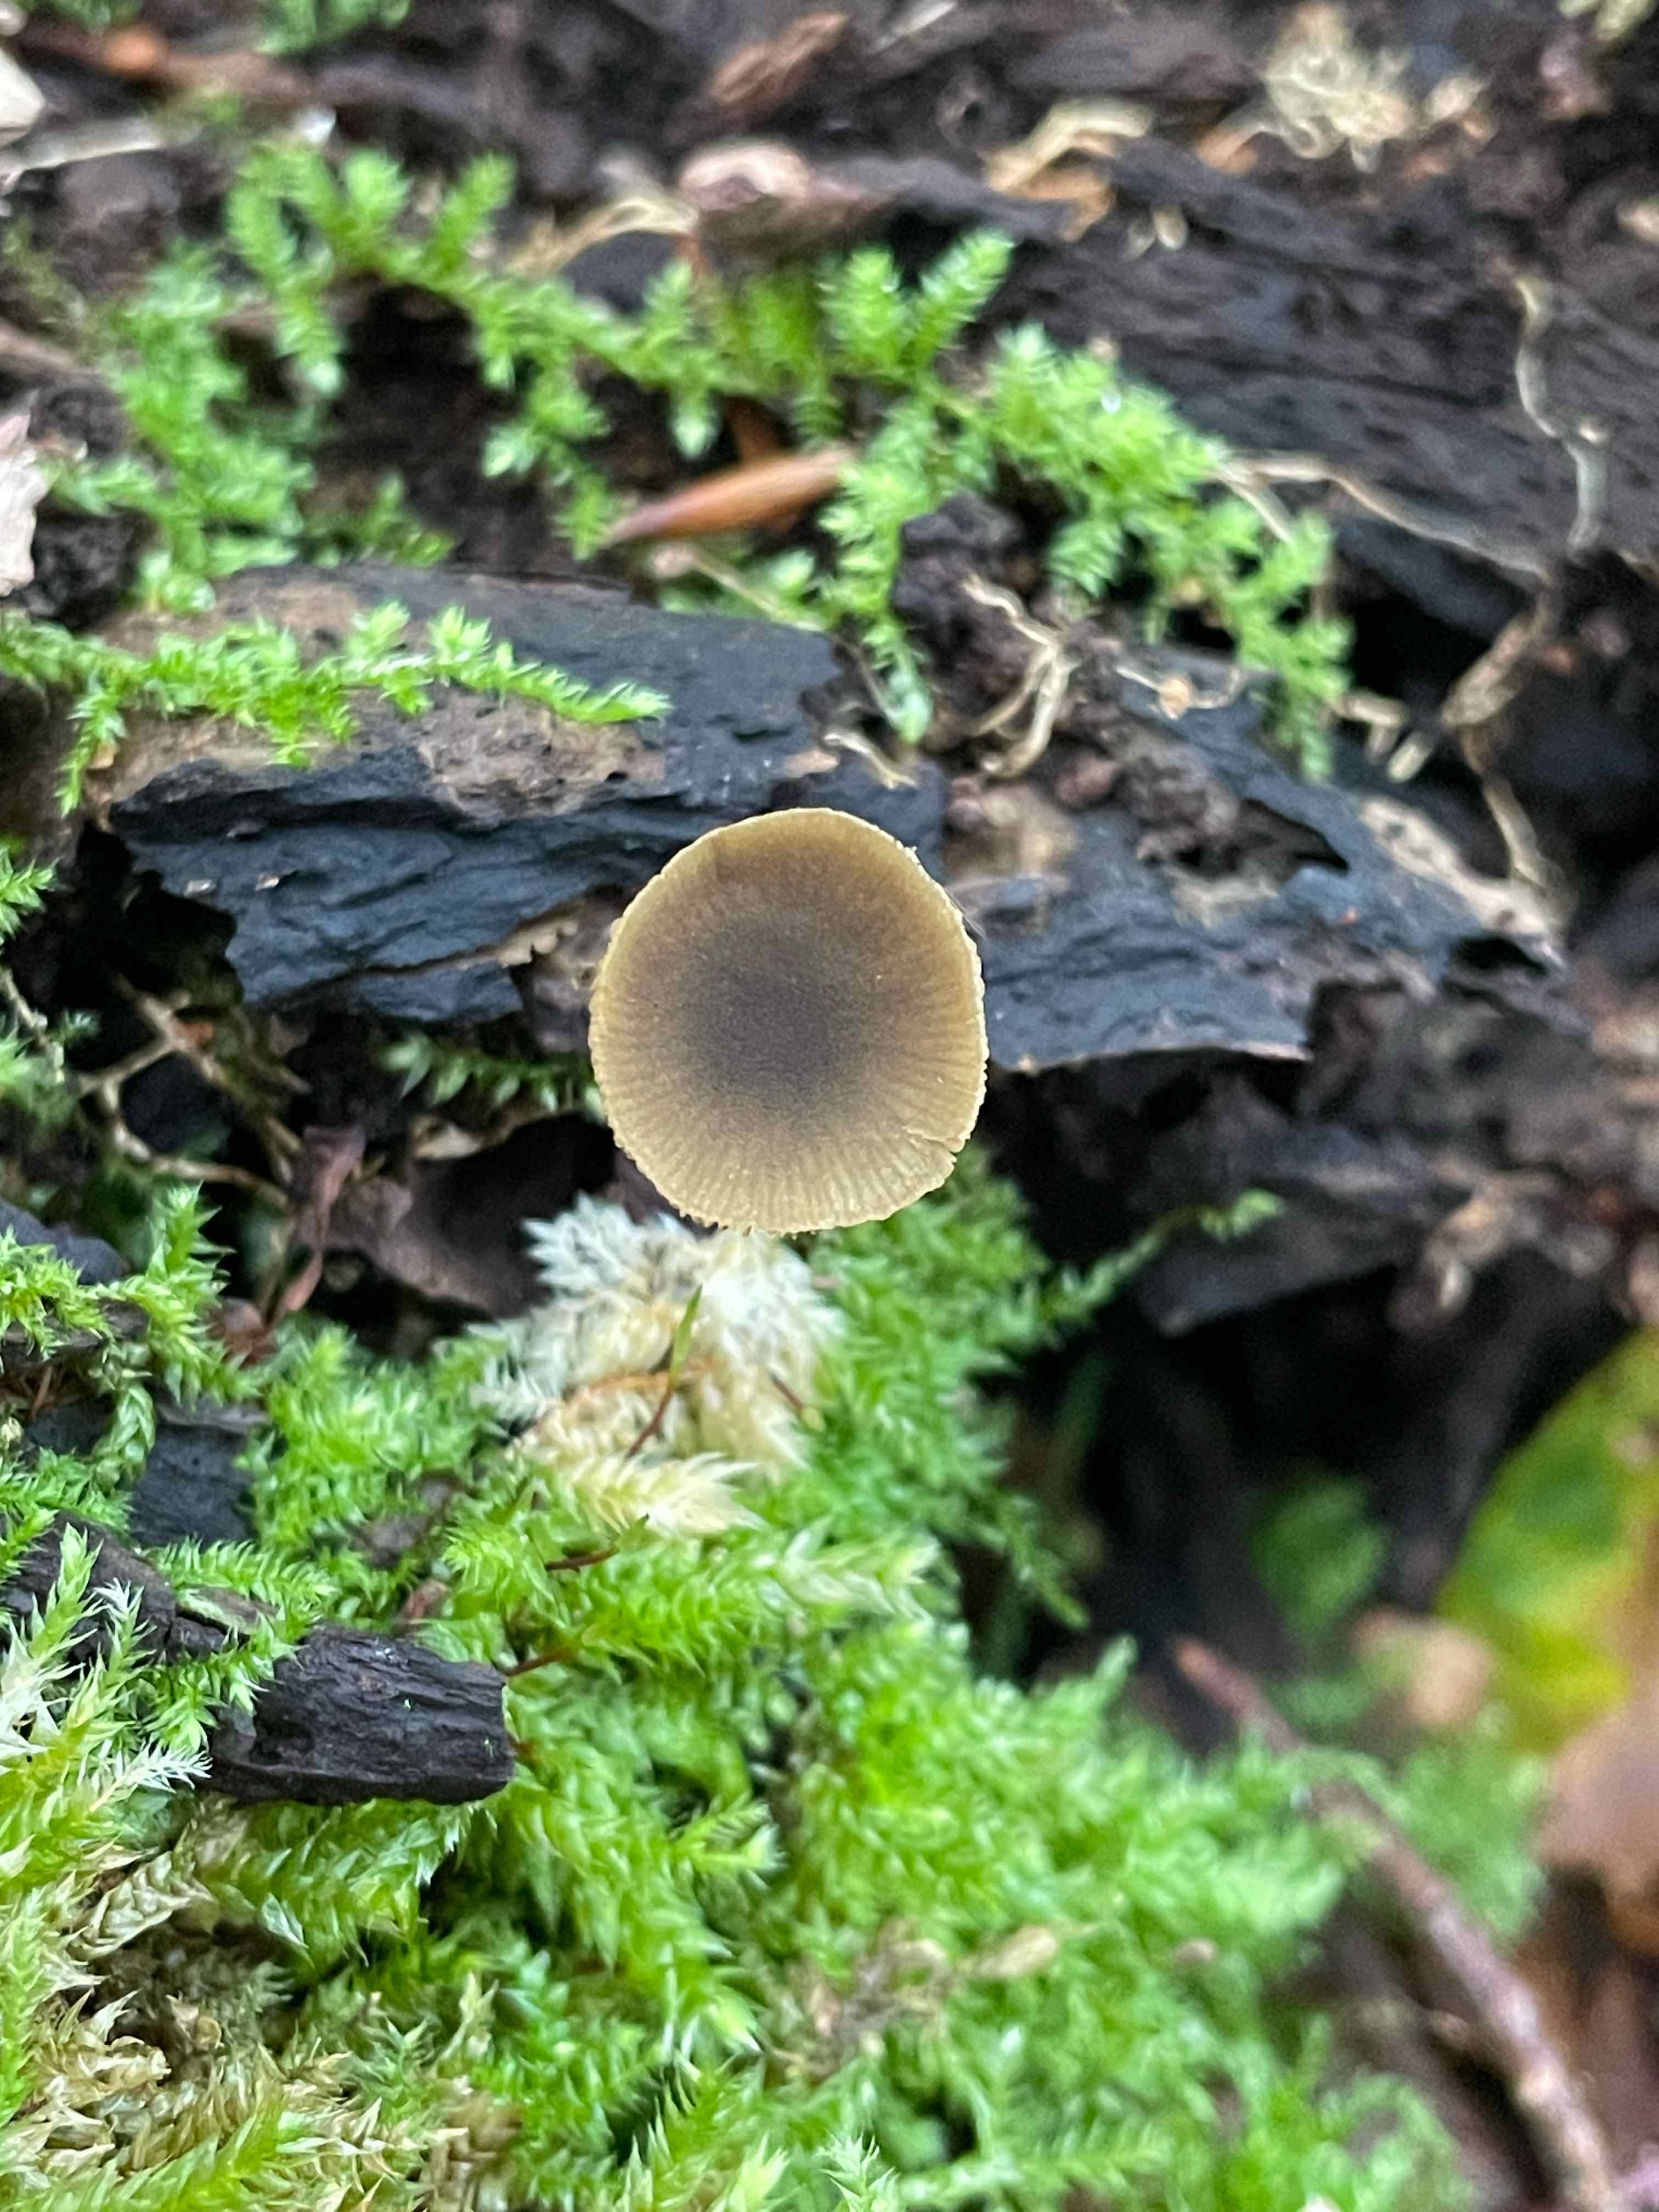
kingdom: Fungi
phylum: Basidiomycota
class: Agaricomycetes
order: Agaricales
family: Crepidotaceae
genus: Simocybe
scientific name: Simocybe centunculus
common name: enlig skyggehat
